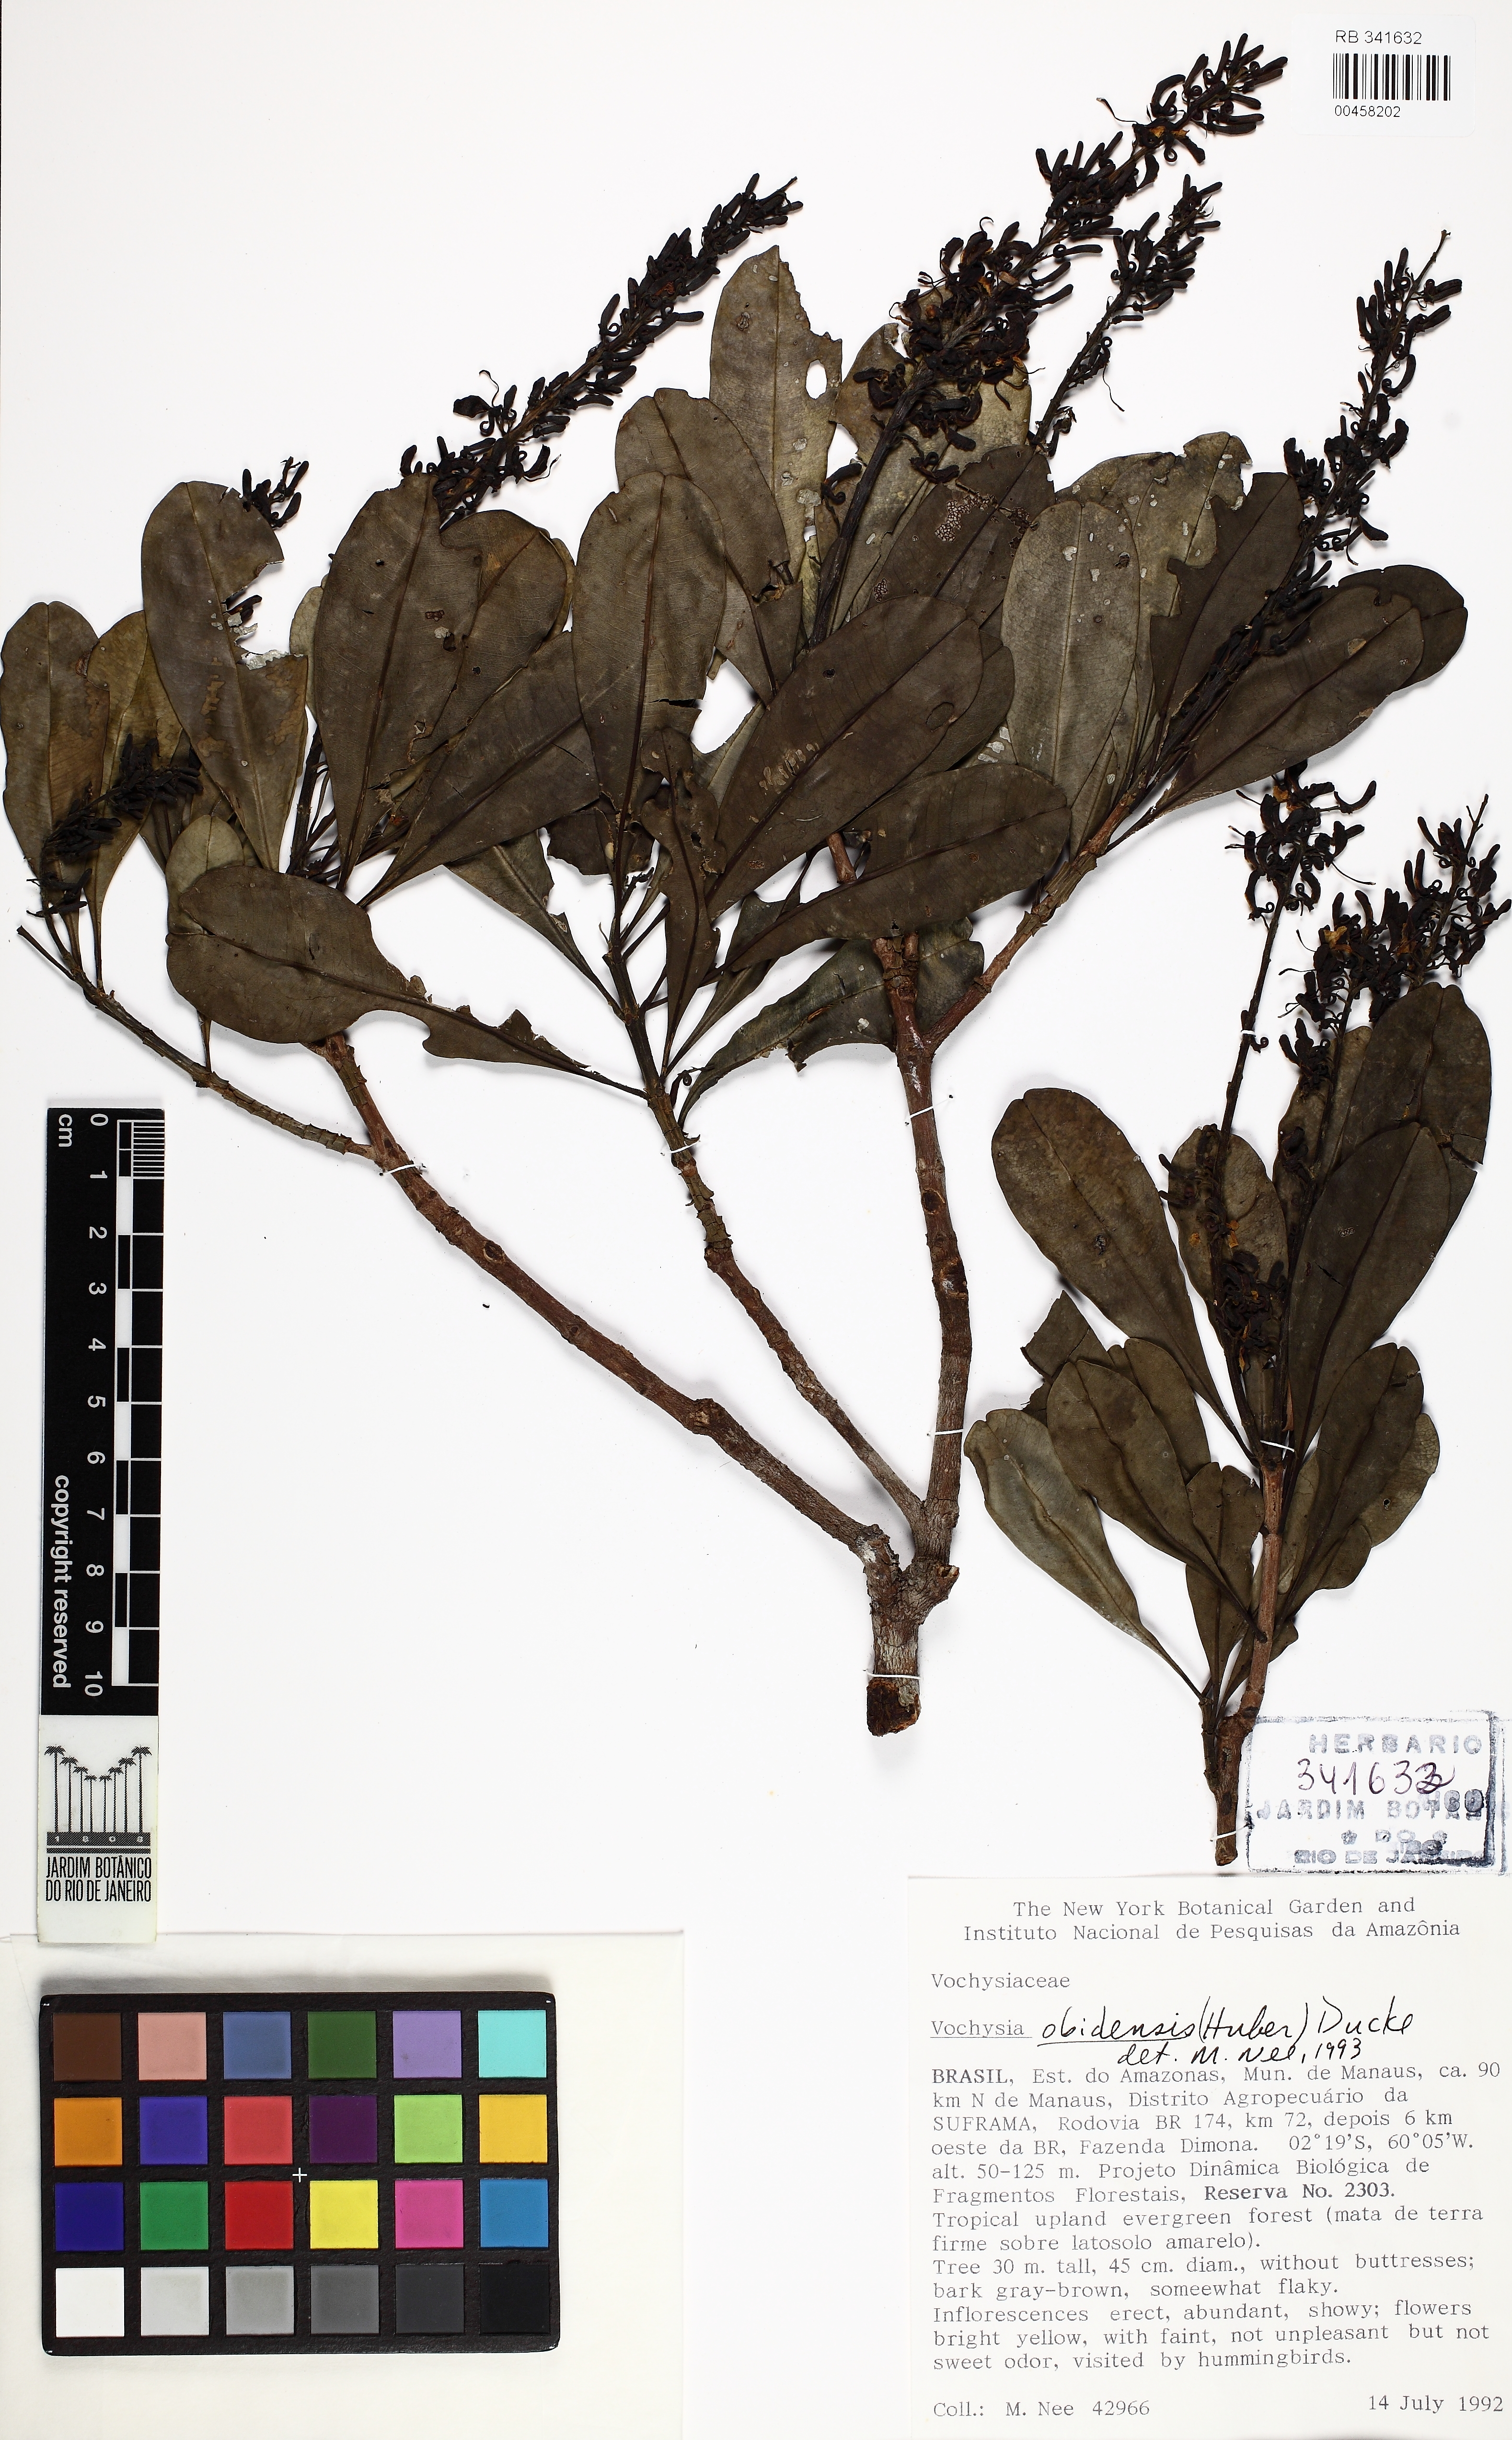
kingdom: Plantae
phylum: Tracheophyta
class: Magnoliopsida
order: Myrtales
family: Vochysiaceae
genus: Vochysia
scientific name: Vochysia obidensis
